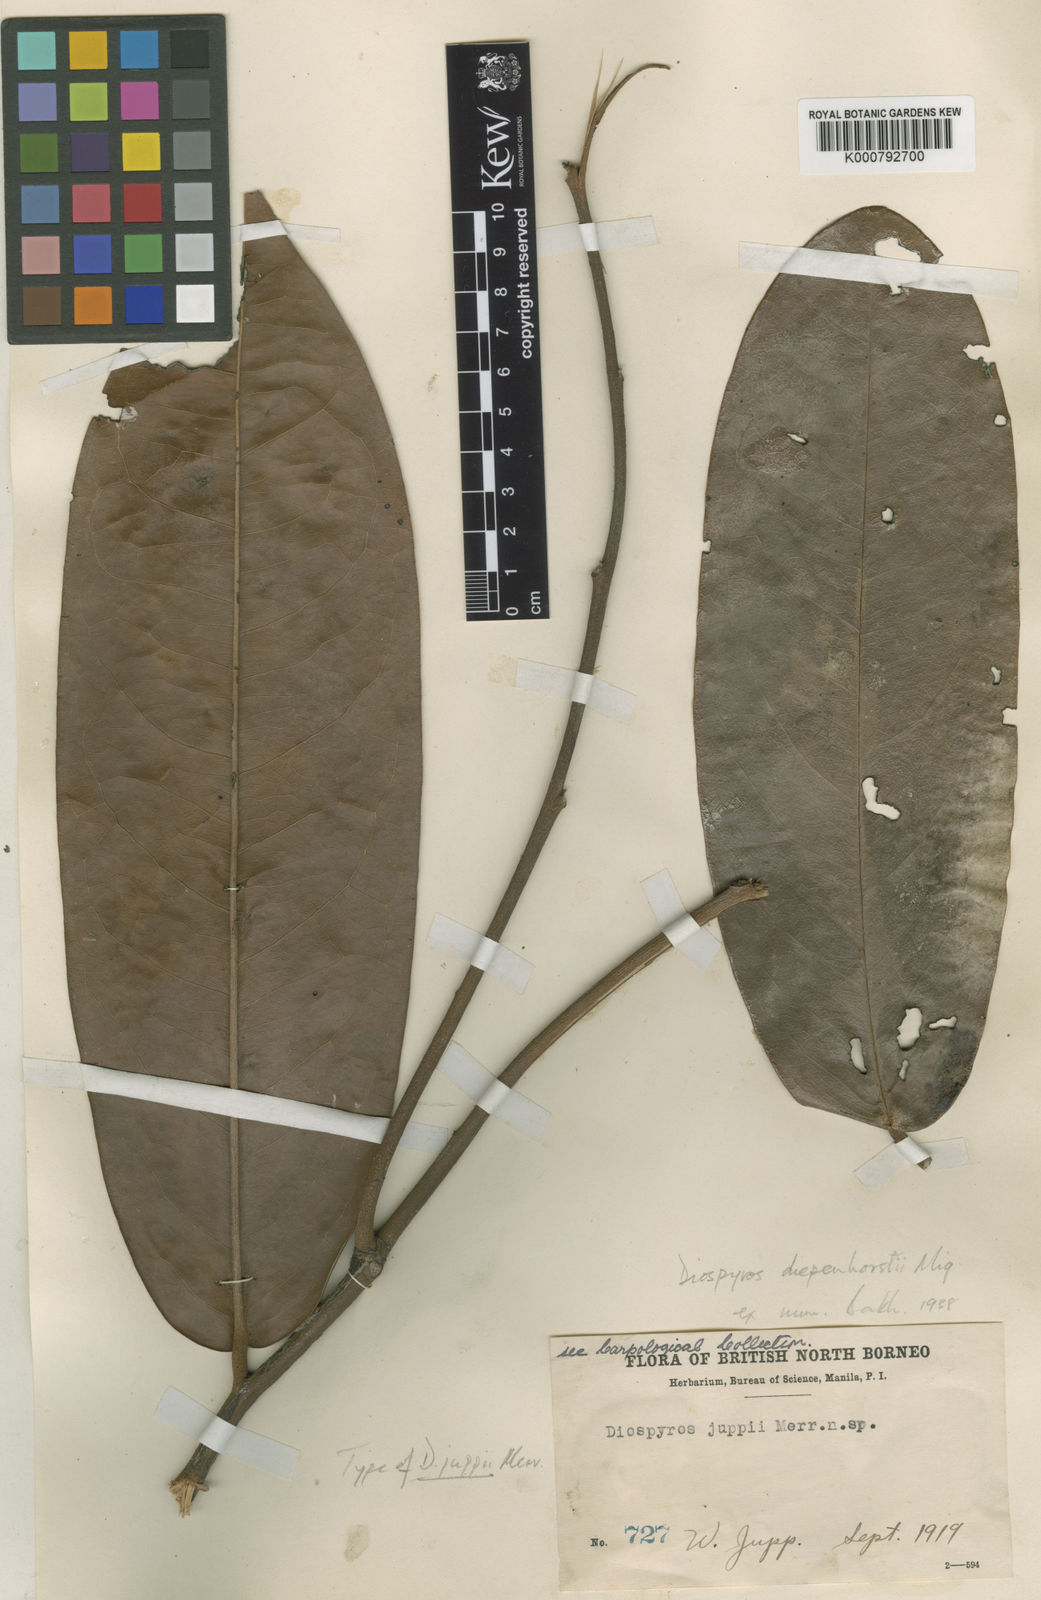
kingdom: Plantae
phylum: Tracheophyta
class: Magnoliopsida
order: Ericales
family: Ebenaceae
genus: Diospyros
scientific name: Diospyros diepenhorstii
